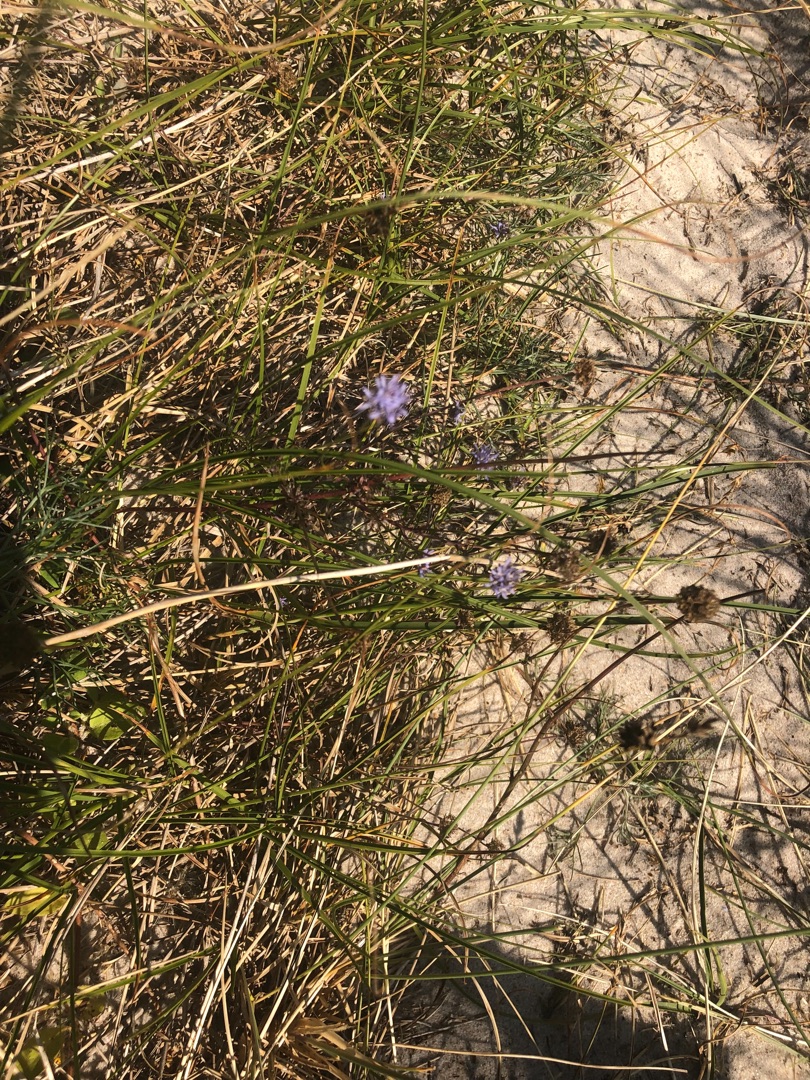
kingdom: Plantae
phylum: Tracheophyta
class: Magnoliopsida
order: Asterales
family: Campanulaceae
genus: Jasione
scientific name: Jasione montana
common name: Blåmunke
